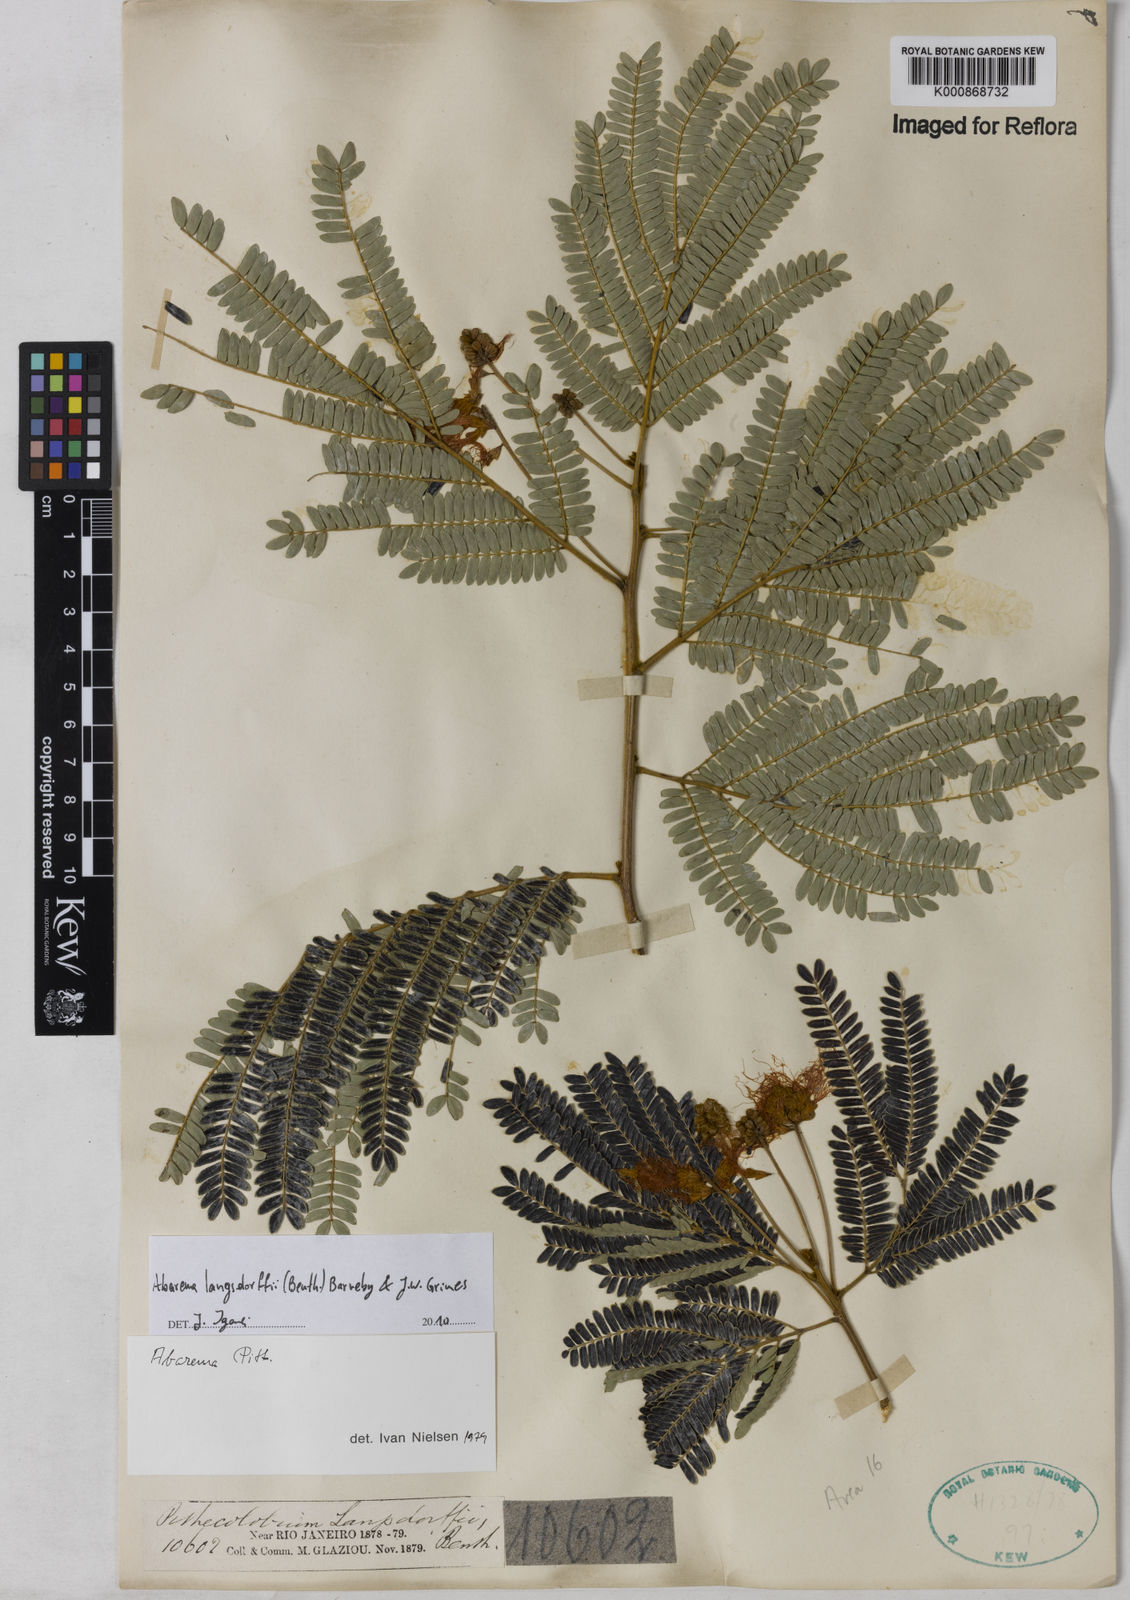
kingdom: Plantae
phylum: Tracheophyta
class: Magnoliopsida
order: Fabales
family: Fabaceae
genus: Jupunba
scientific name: Jupunba langsdorffii
